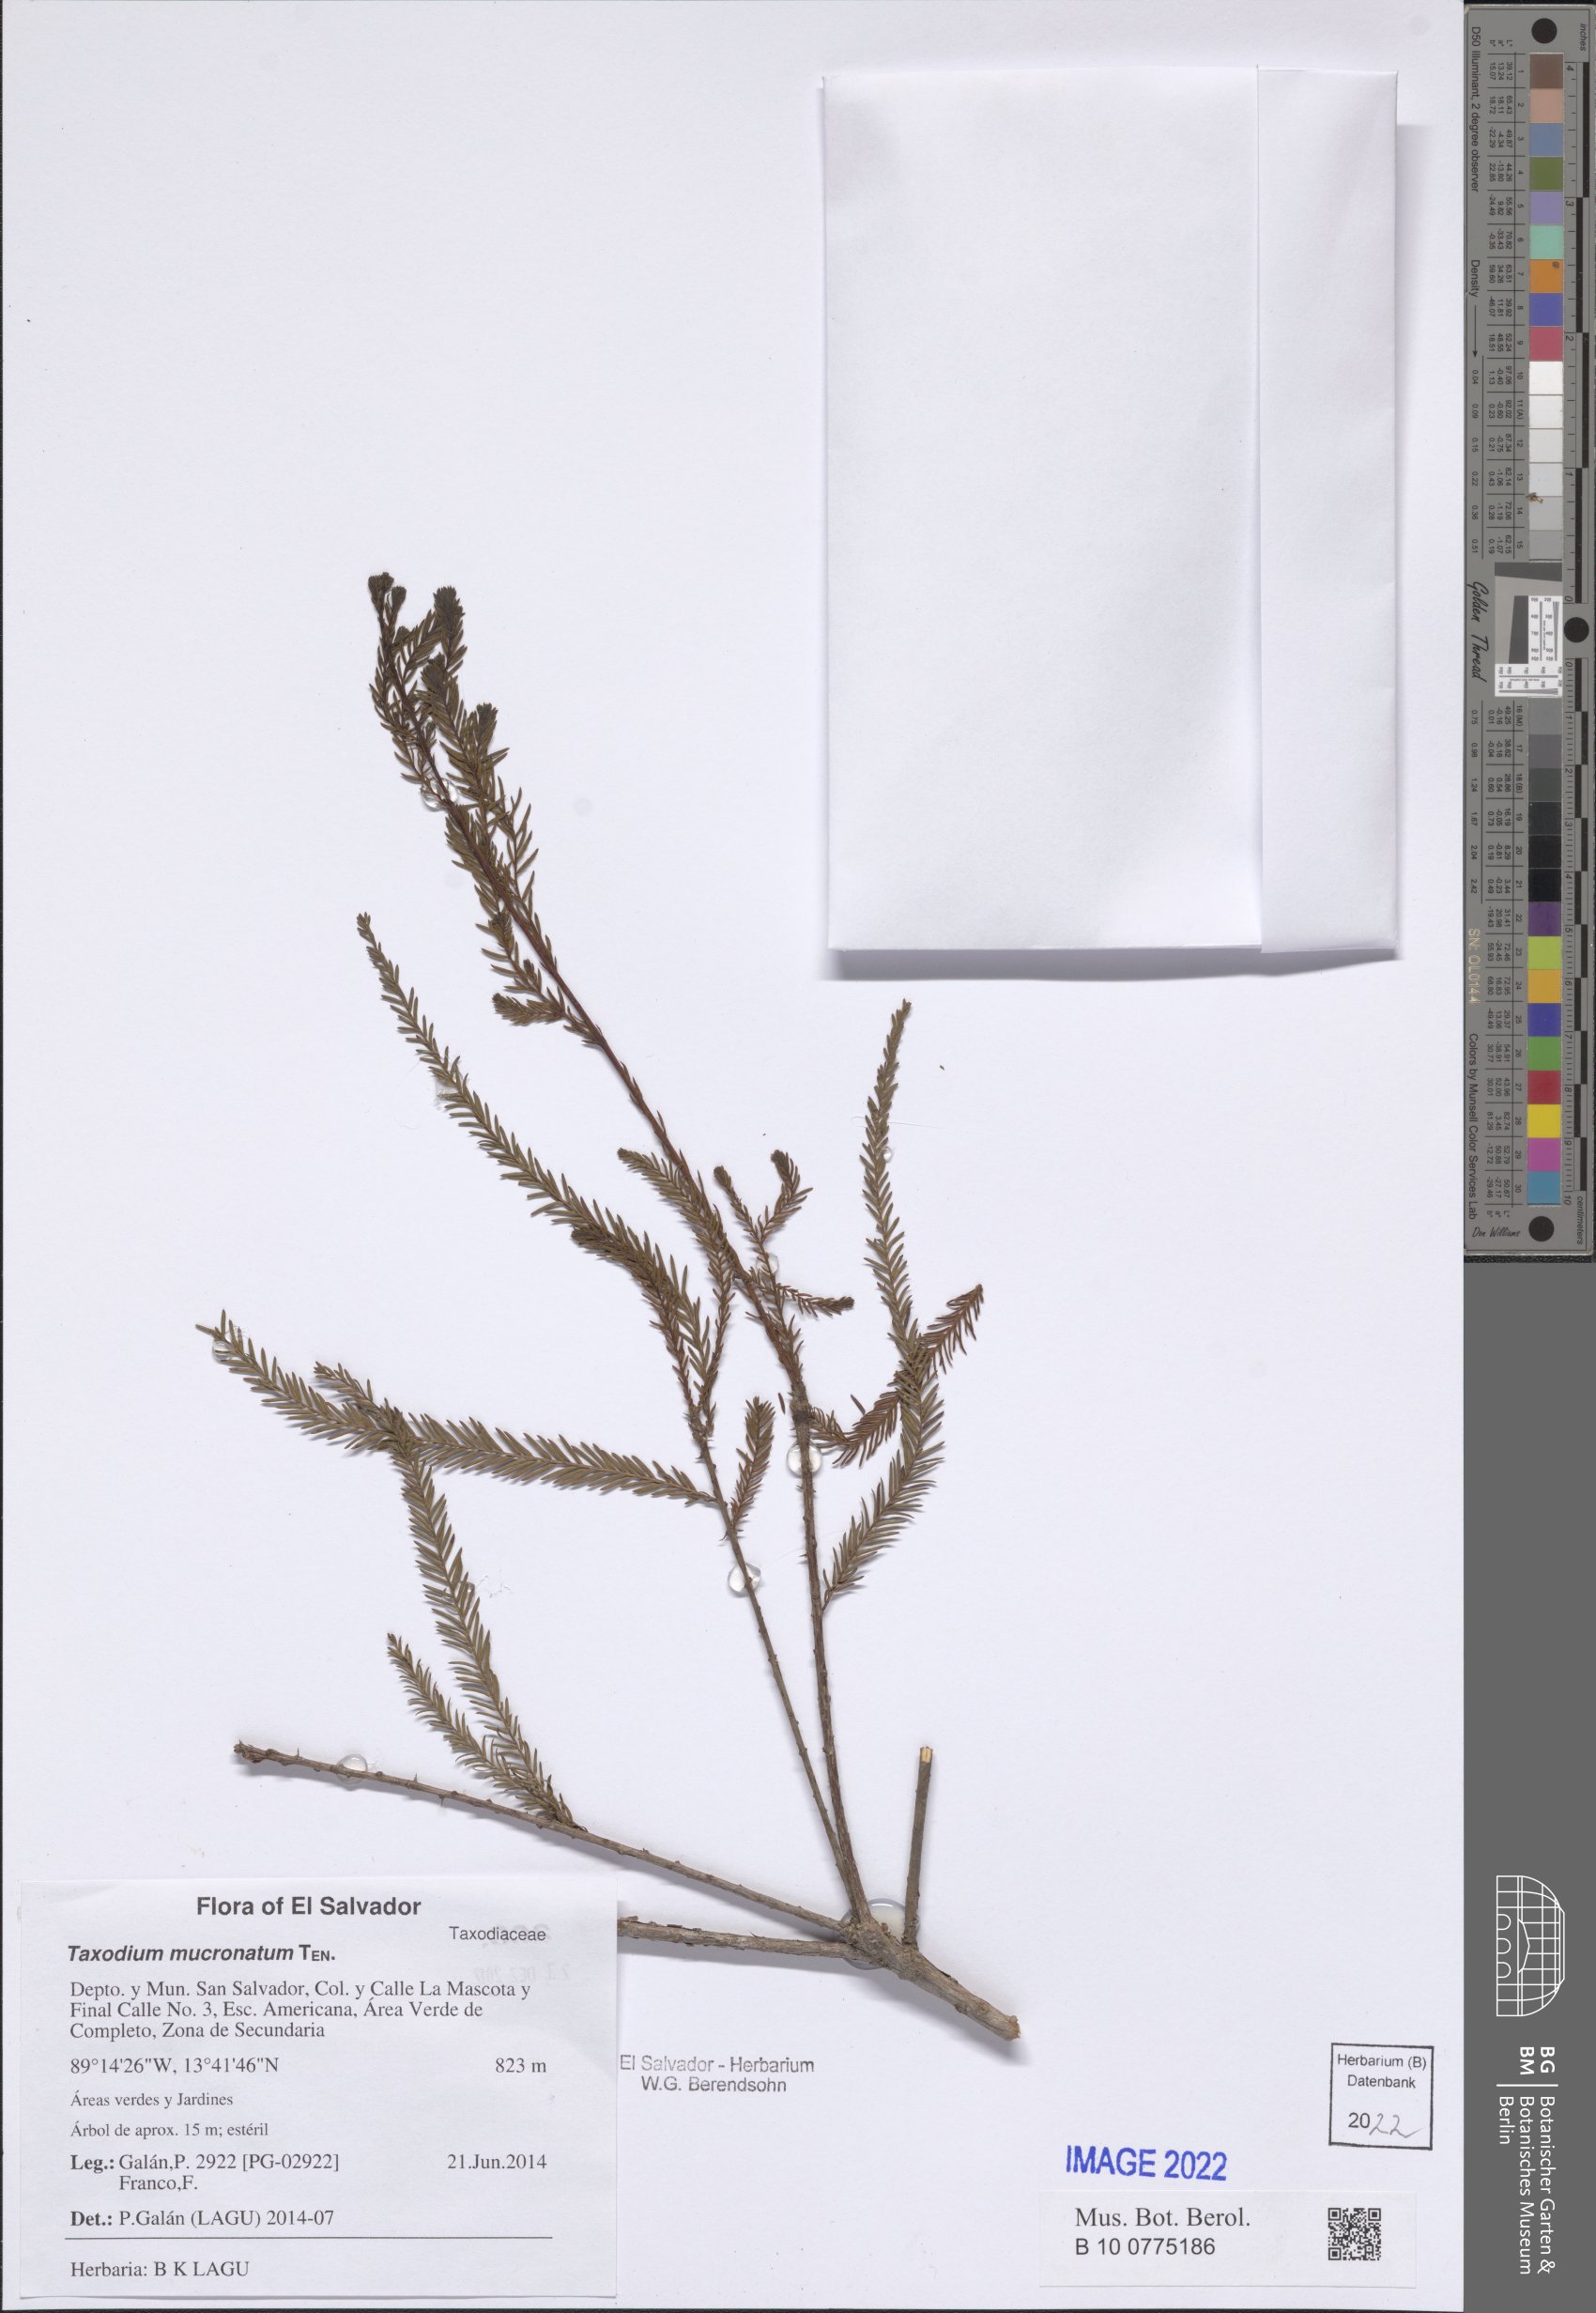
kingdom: Plantae
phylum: Tracheophyta
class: Pinopsida
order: Pinales
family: Cupressaceae
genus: Taxodium
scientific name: Taxodium mucronatum
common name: Montezume bald cypress
